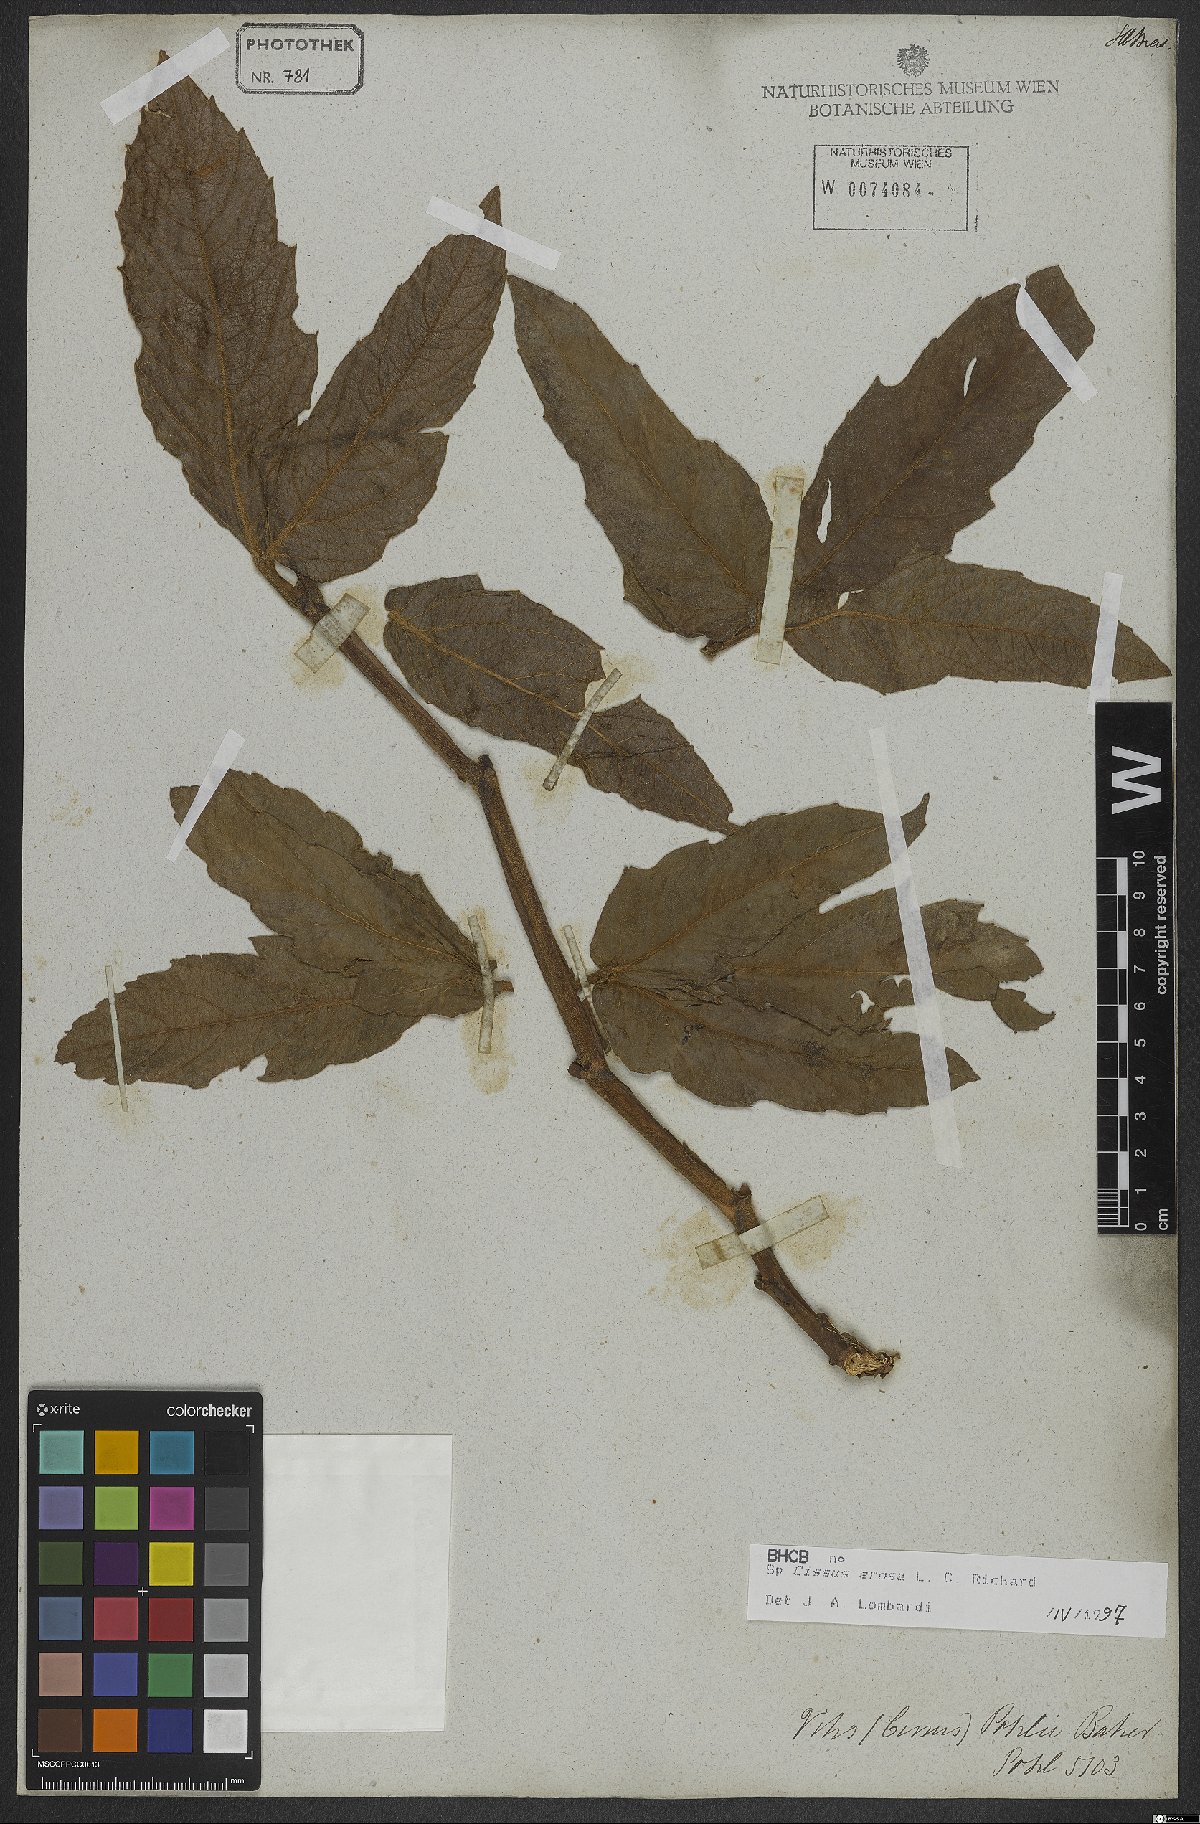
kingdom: Plantae
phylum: Tracheophyta
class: Magnoliopsida
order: Vitales
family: Vitaceae
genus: Cissus
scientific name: Cissus erosa
